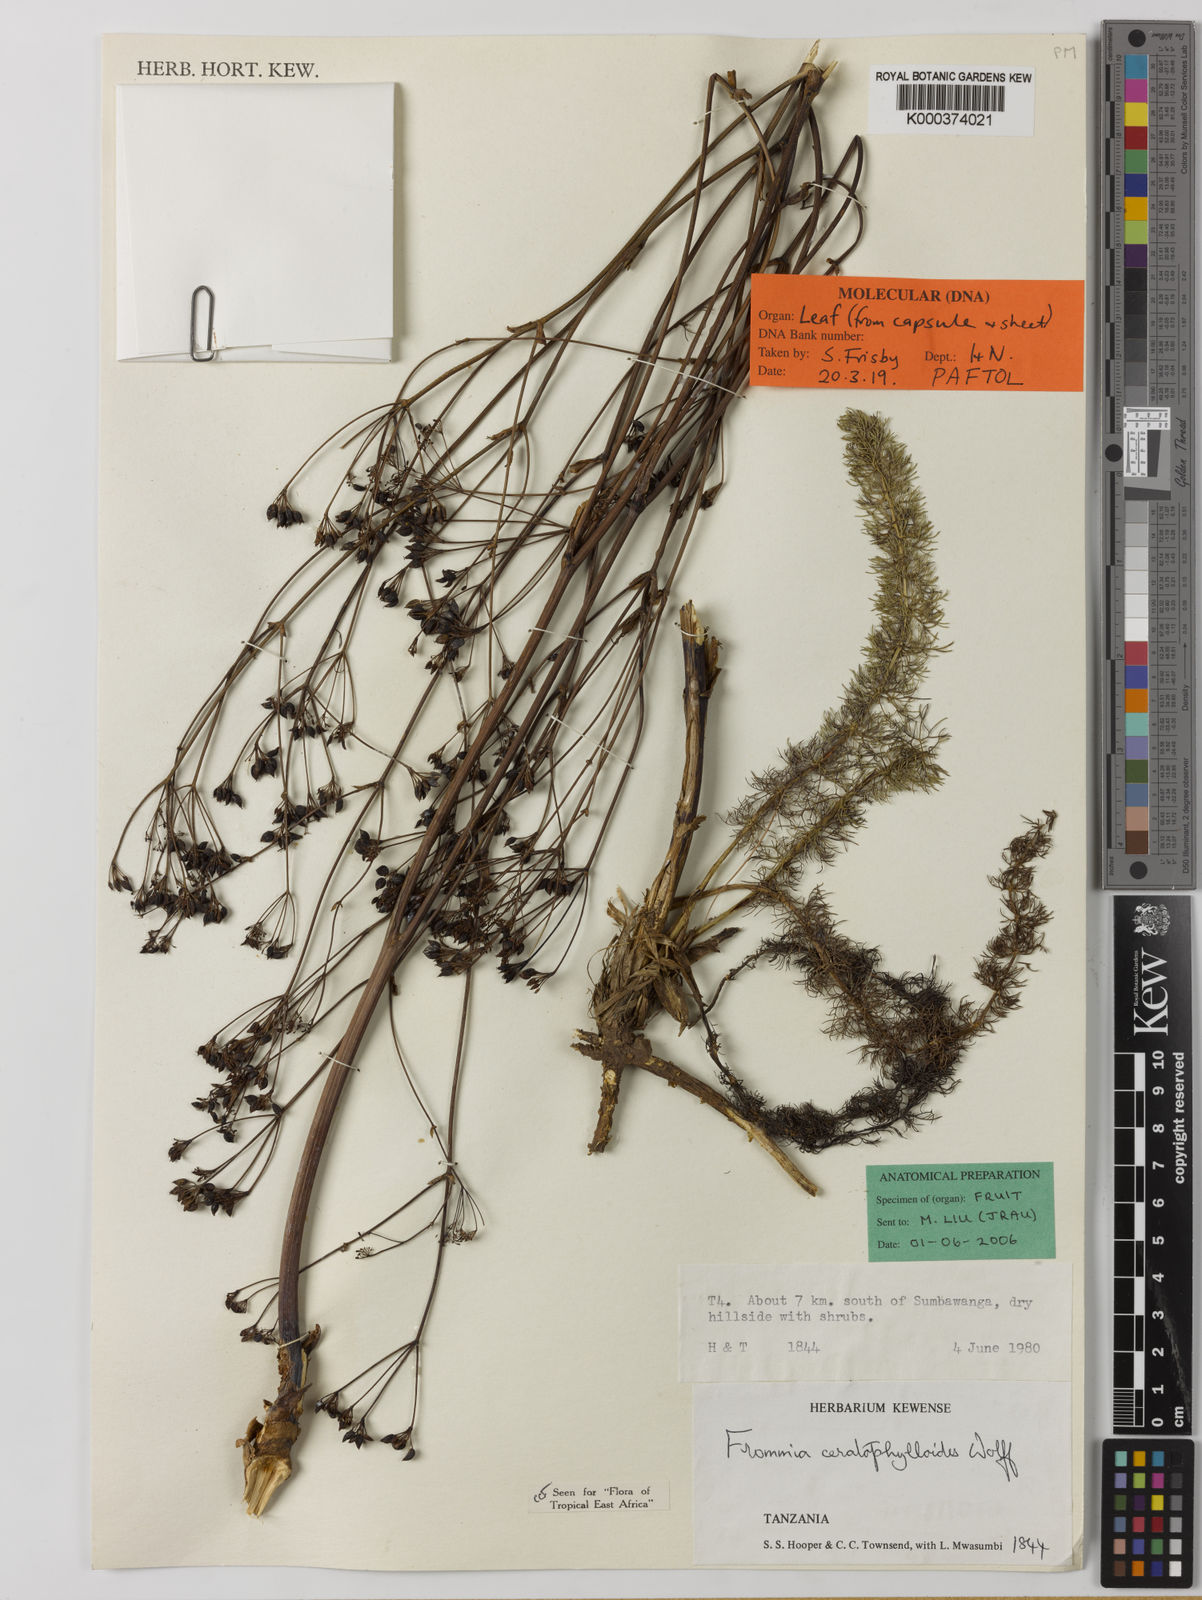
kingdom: Plantae
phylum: Tracheophyta
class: Magnoliopsida
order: Apiales
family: Apiaceae
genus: Frommia
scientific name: Frommia ceratophylloides
